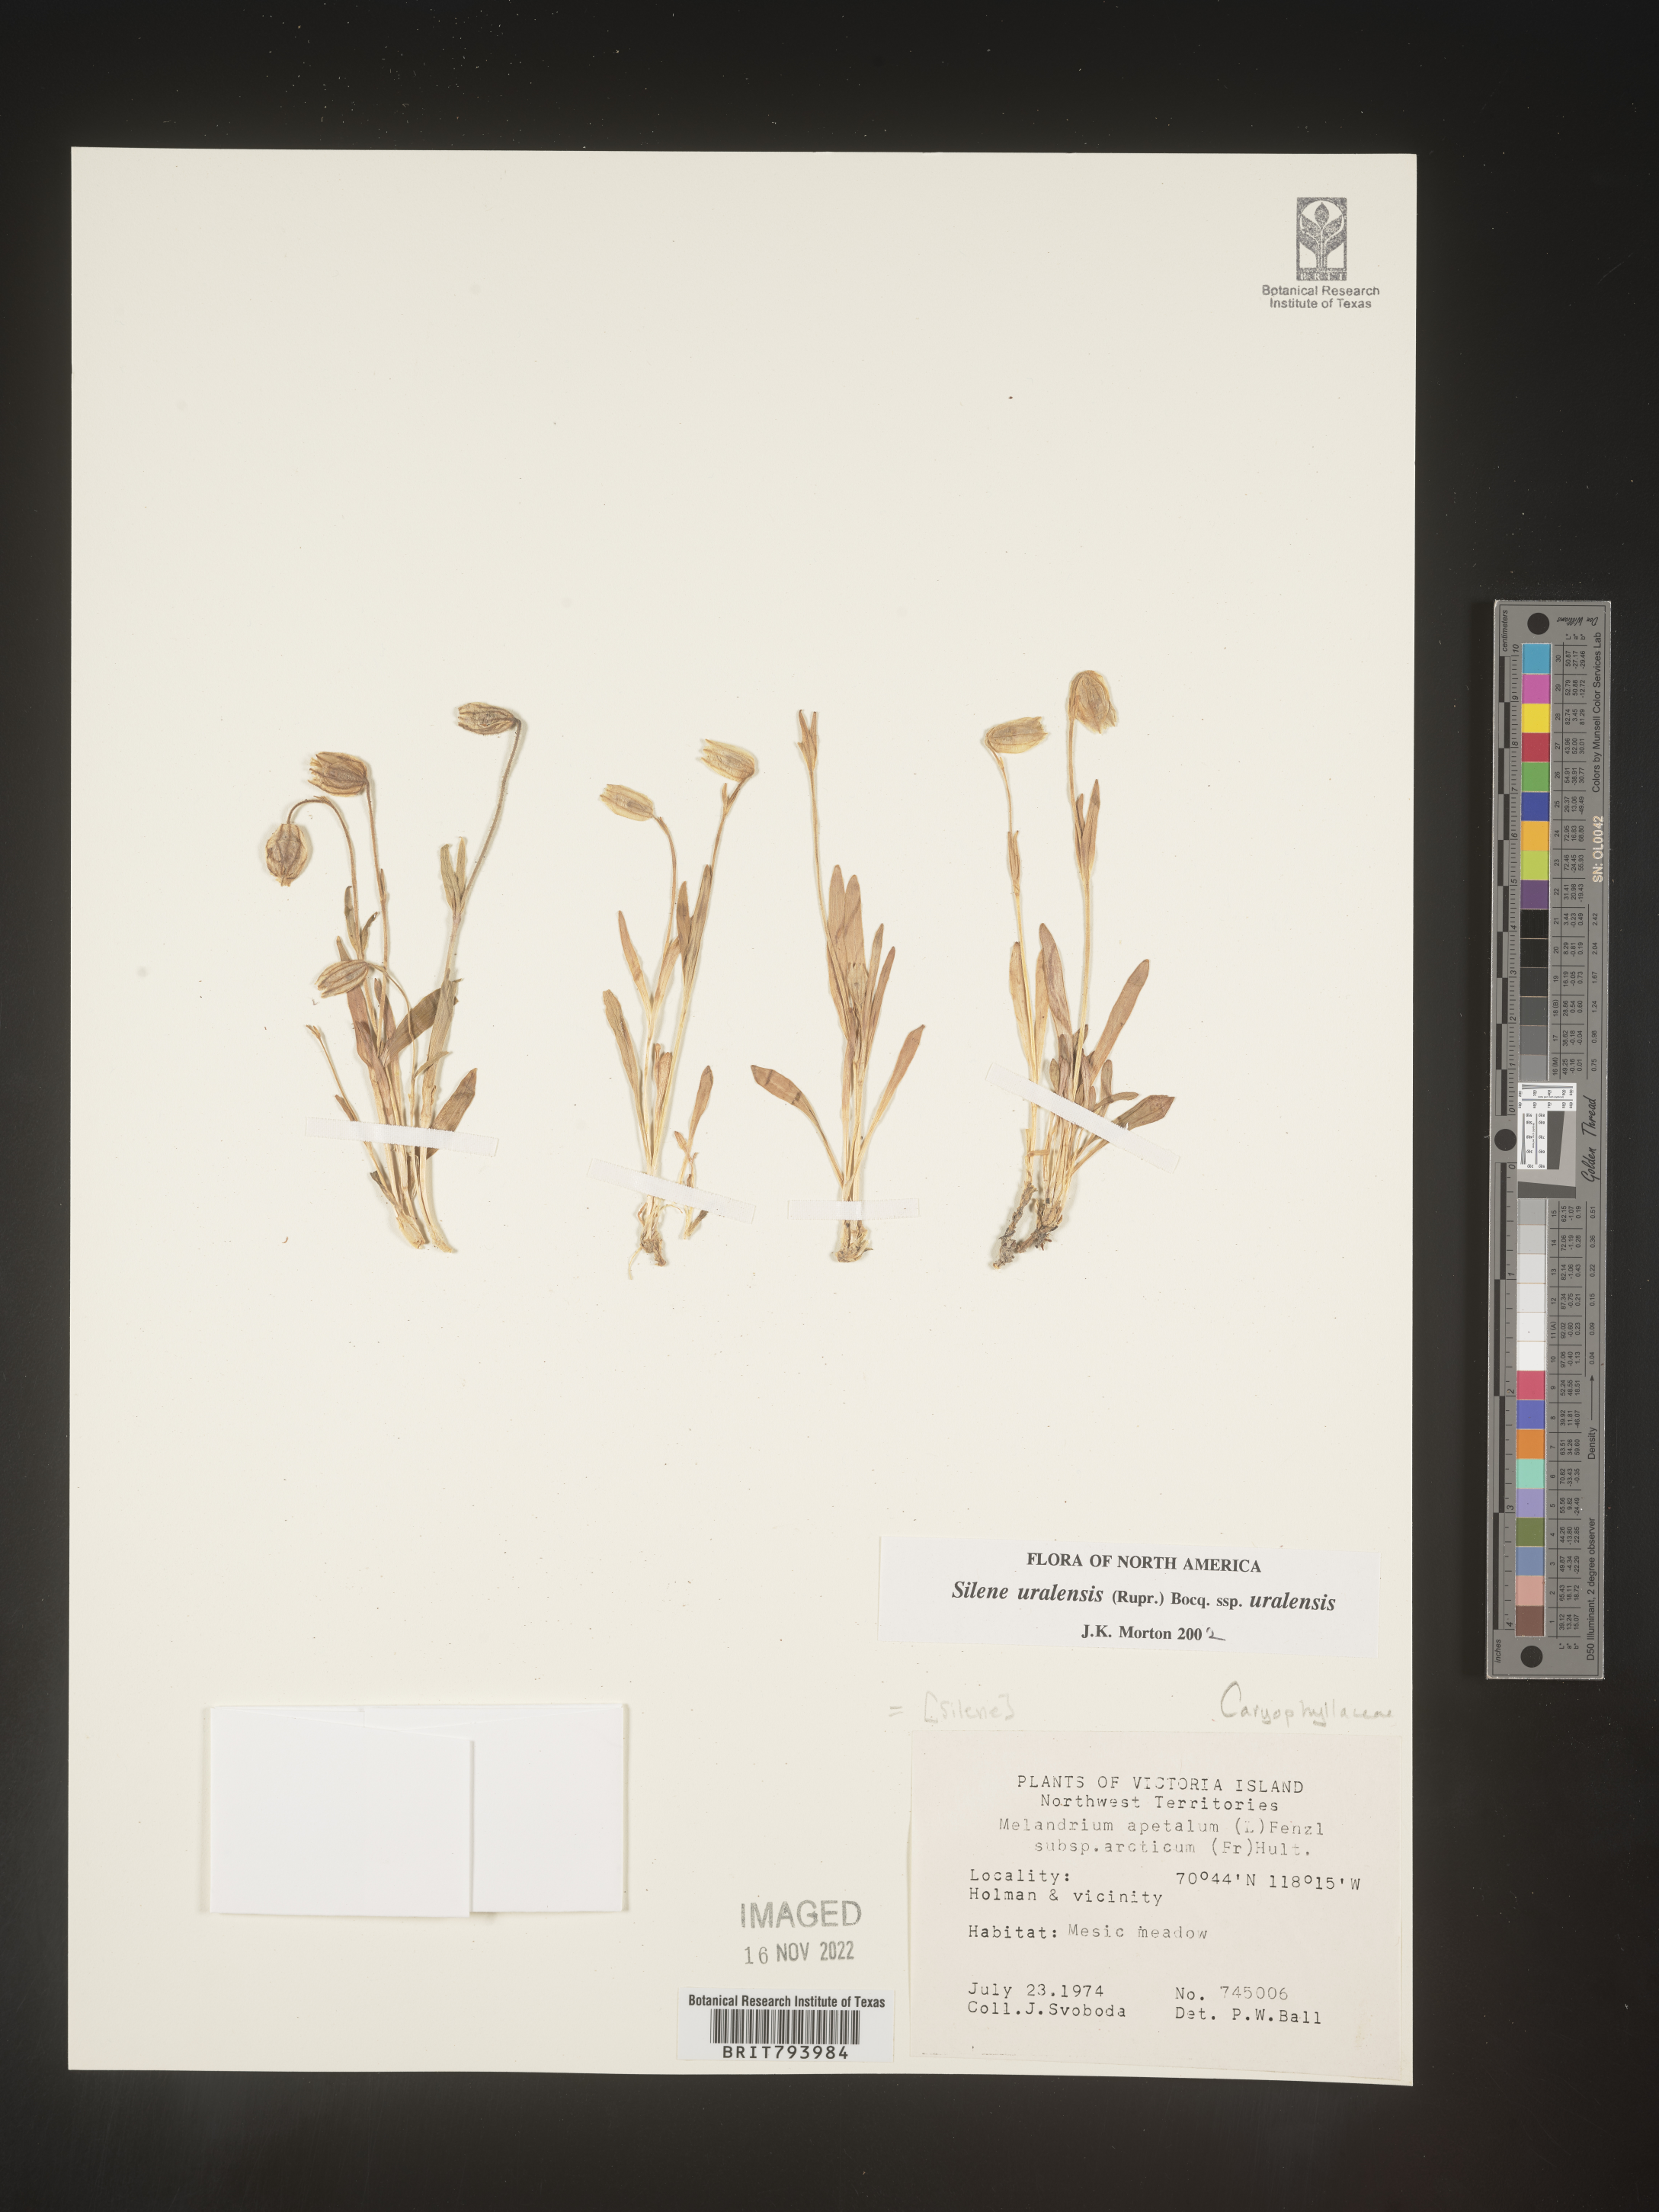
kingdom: Plantae
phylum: Tracheophyta
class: Magnoliopsida
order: Caryophyllales
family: Caryophyllaceae
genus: Silene
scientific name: Silene uralensis
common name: Nodding campion
